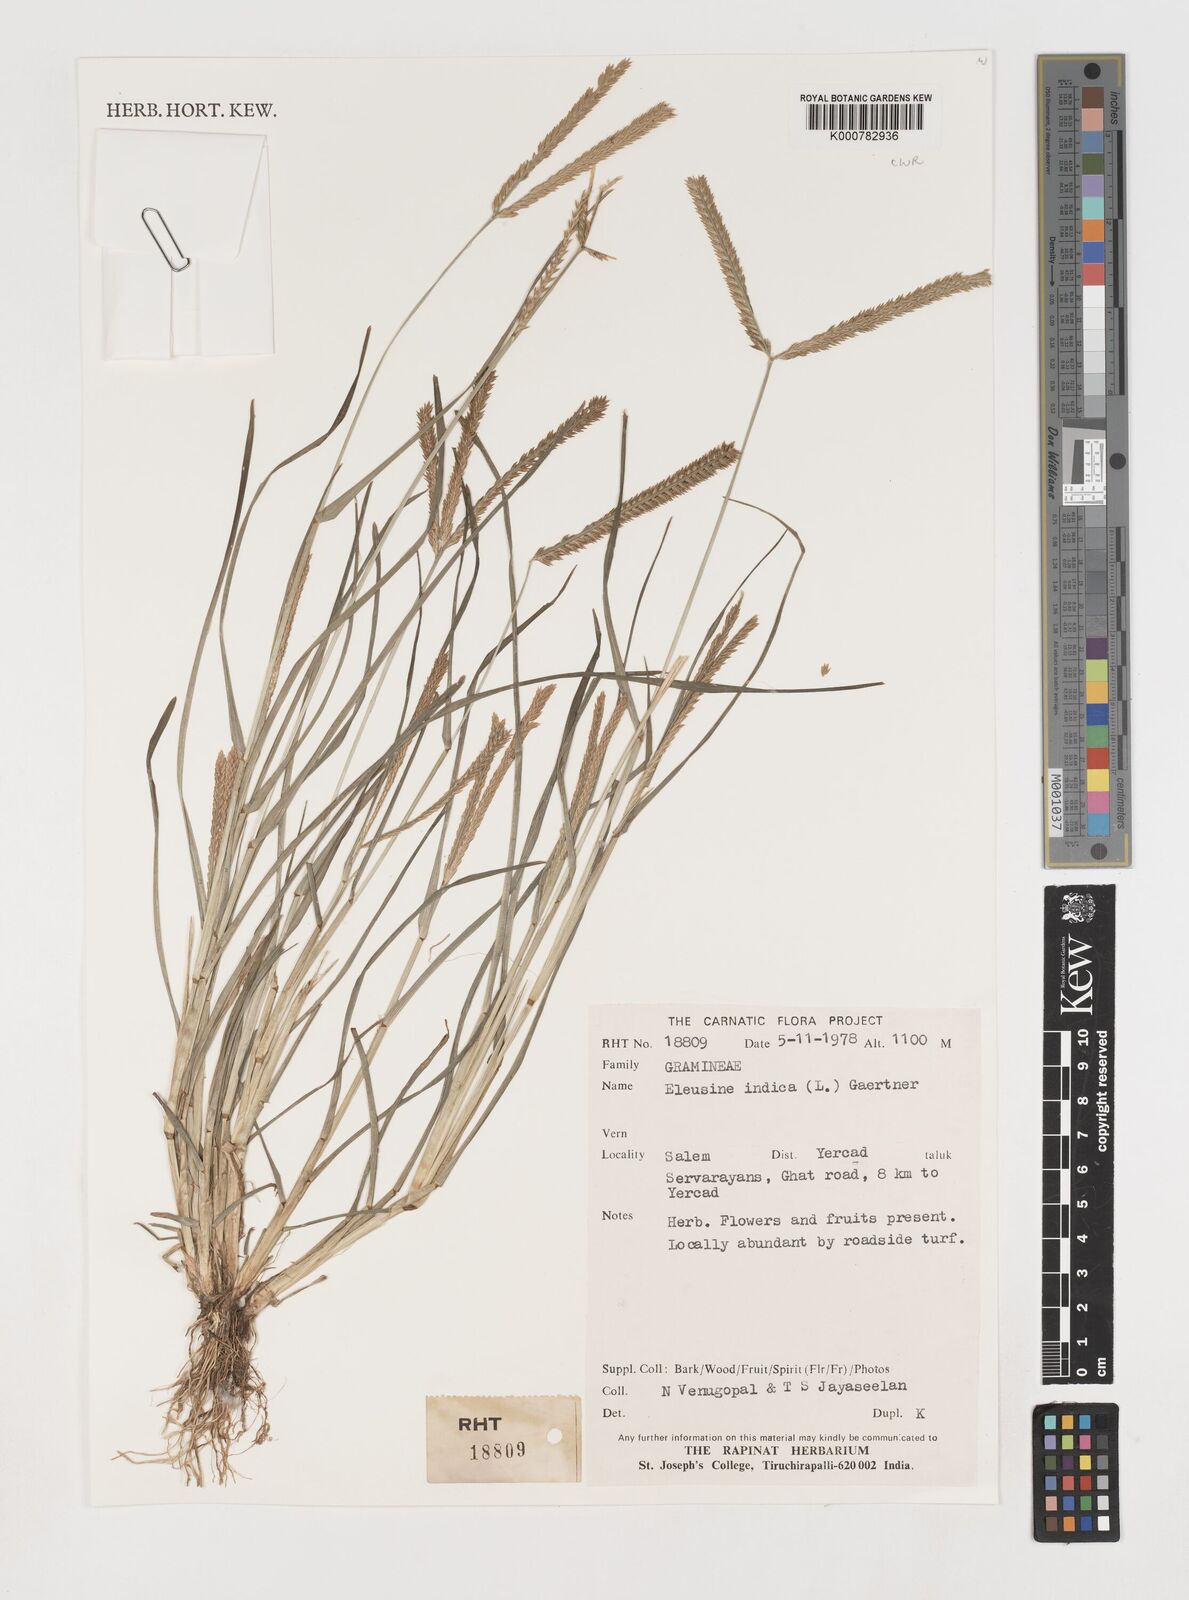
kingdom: Plantae
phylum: Tracheophyta
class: Liliopsida
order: Poales
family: Poaceae
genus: Eleusine
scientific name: Eleusine indica
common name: Yard-grass
